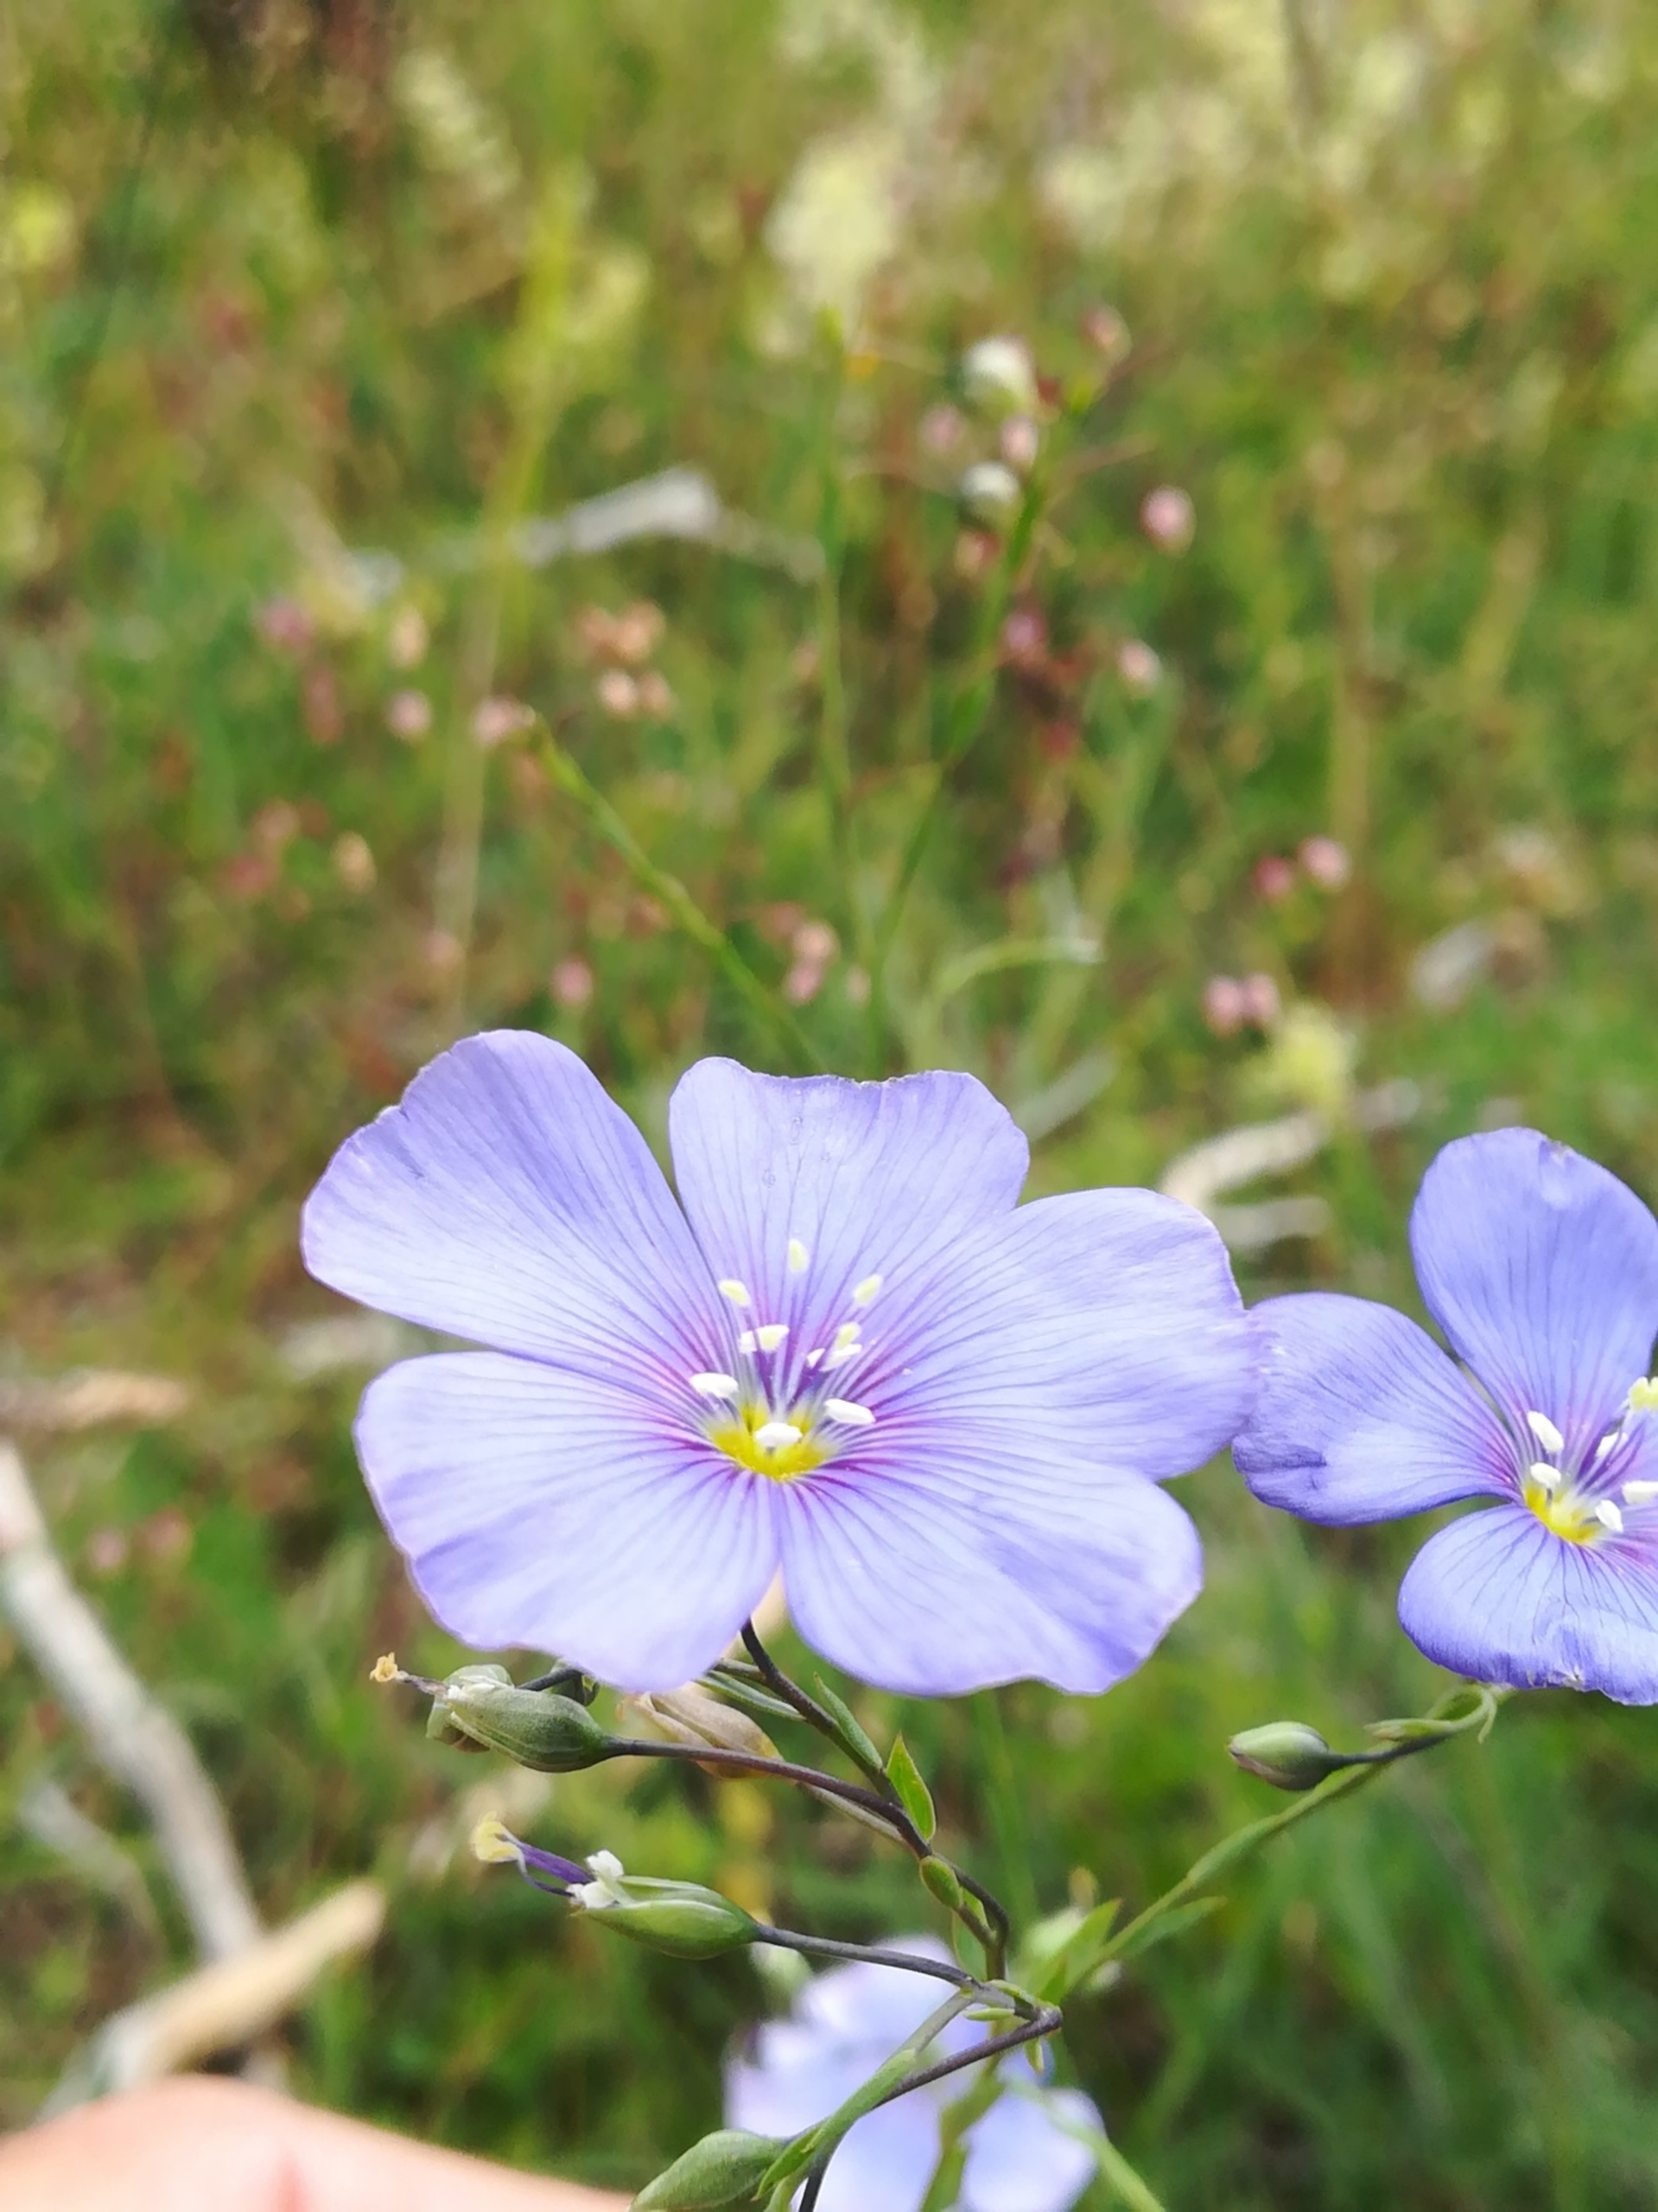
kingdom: Plantae
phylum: Tracheophyta
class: Magnoliopsida
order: Malpighiales
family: Linaceae
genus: Linum
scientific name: Linum austriacum
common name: Østrigsk hør
